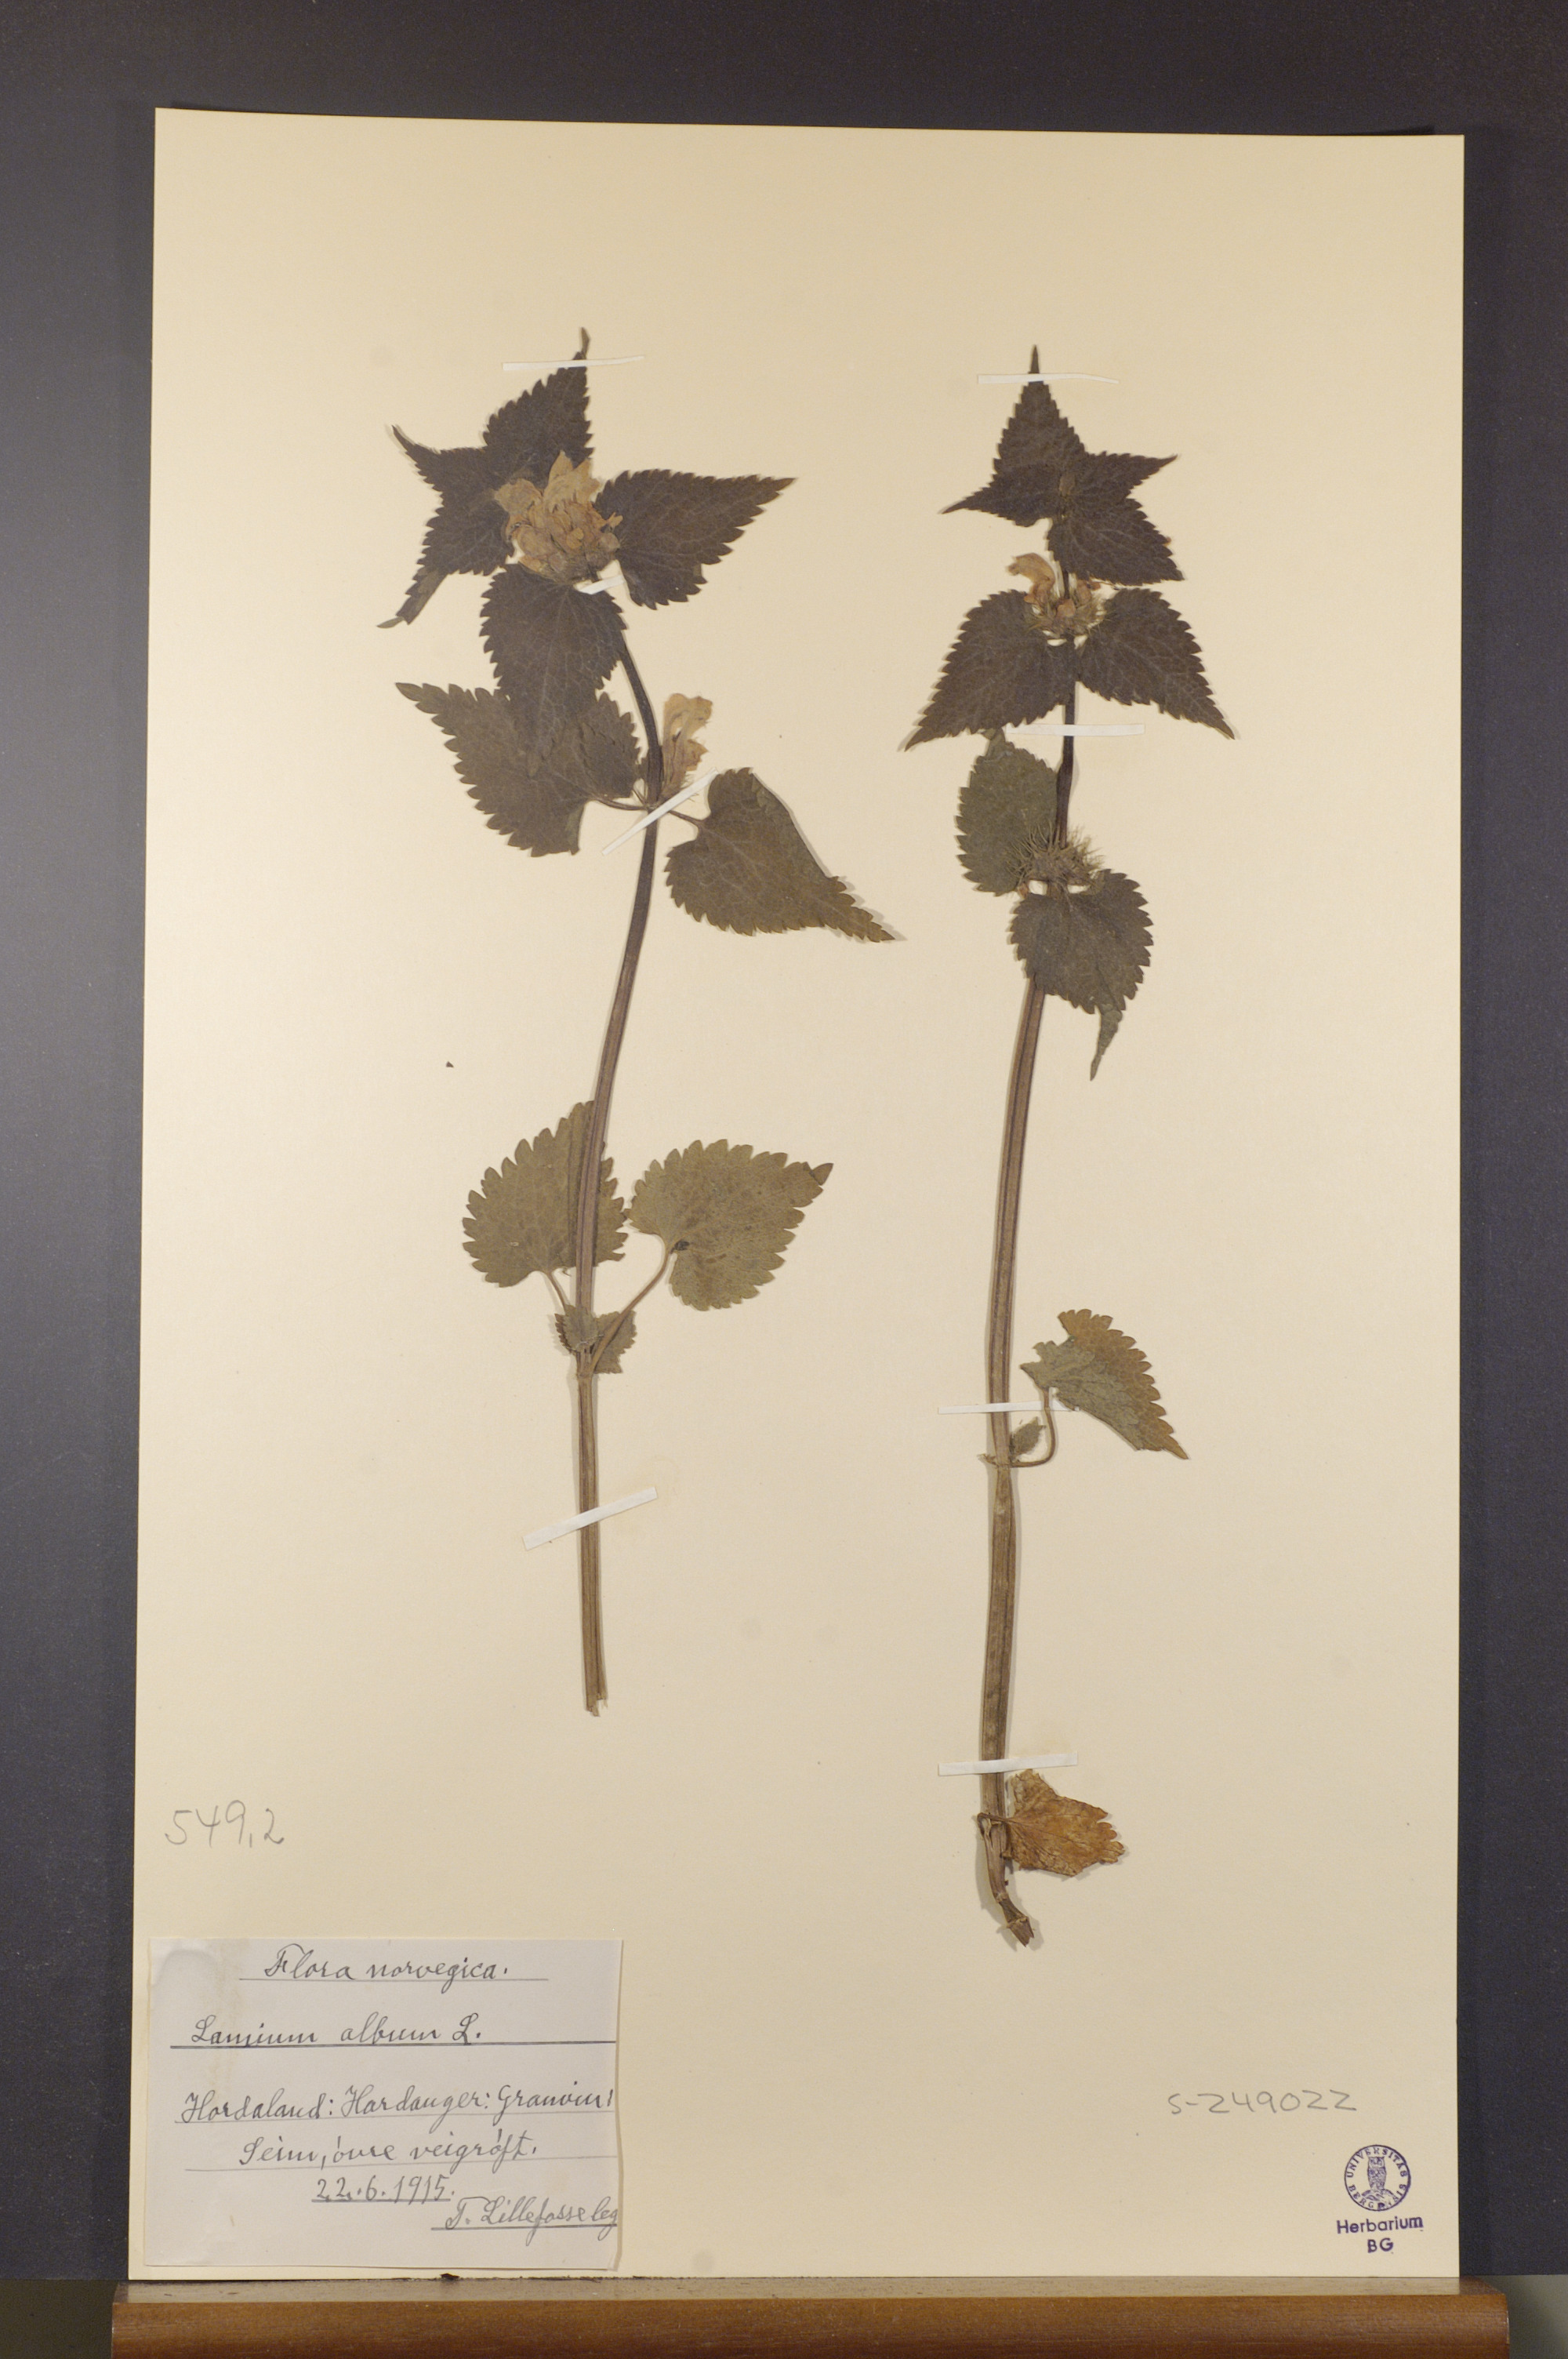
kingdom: Plantae
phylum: Tracheophyta
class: Magnoliopsida
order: Lamiales
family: Lamiaceae
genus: Lamium
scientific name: Lamium album
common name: White dead-nettle
